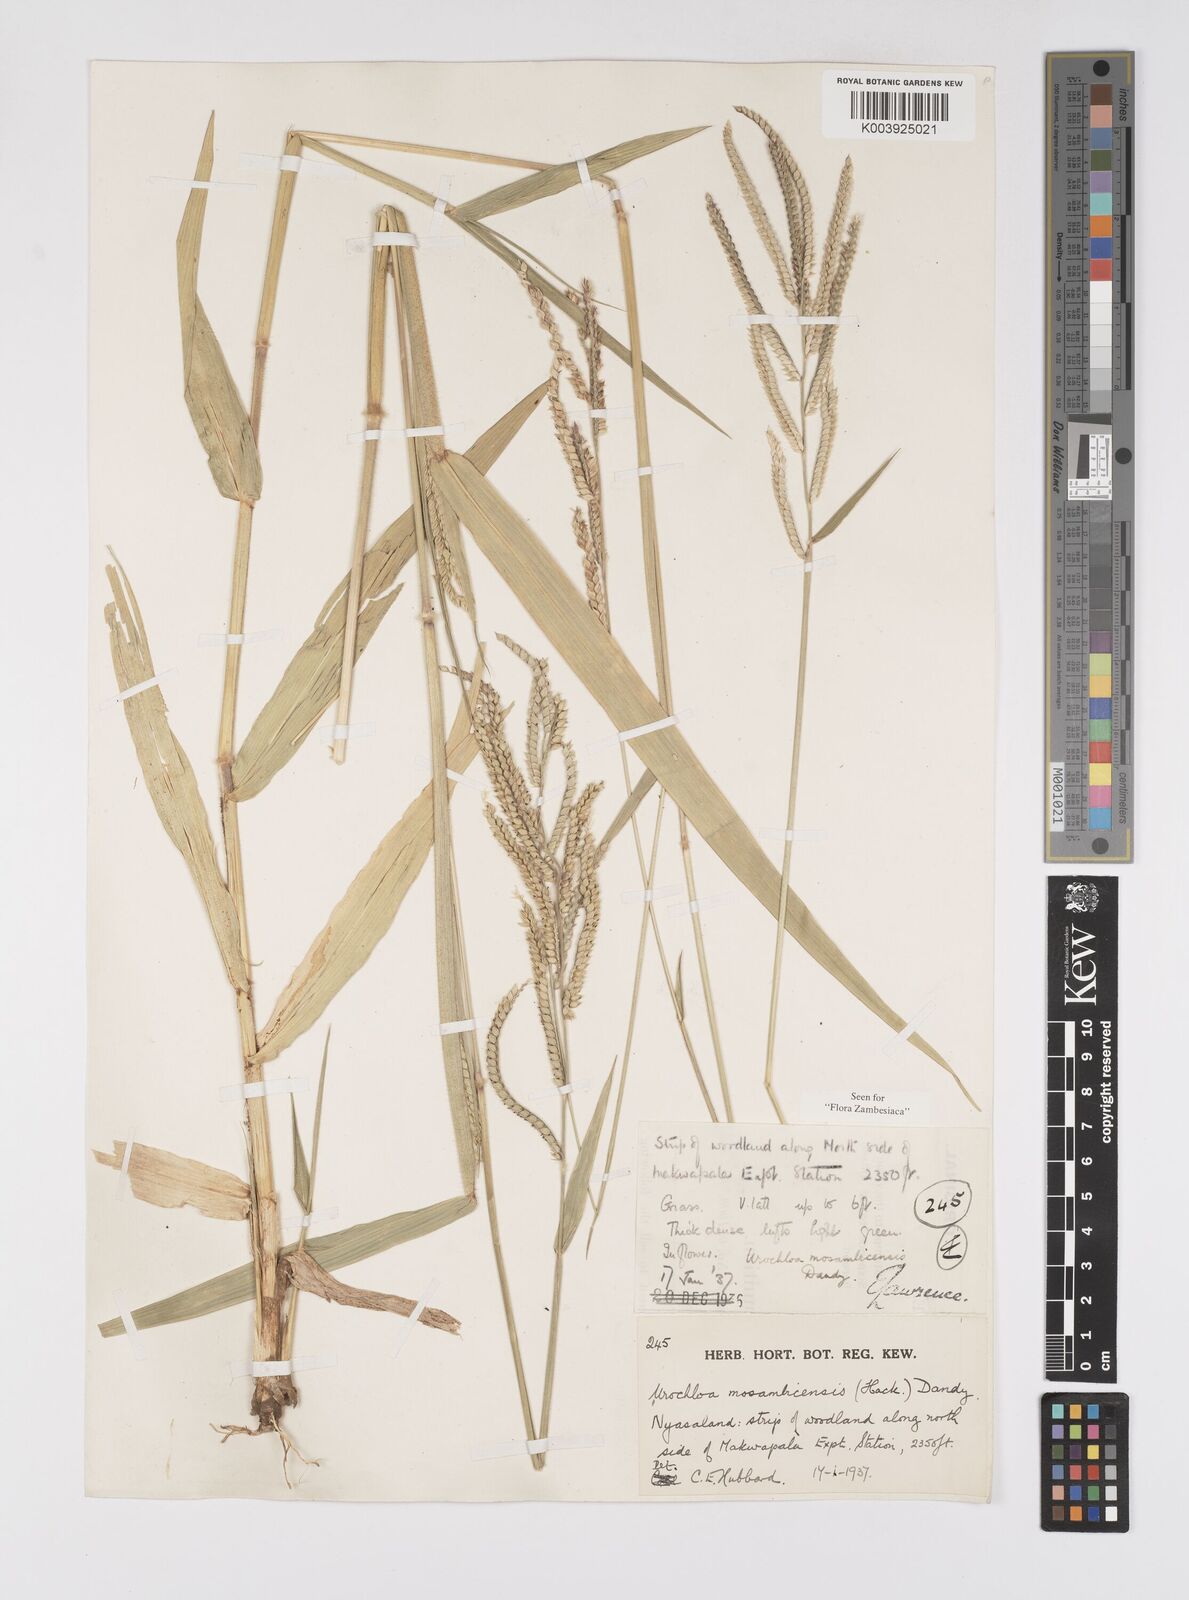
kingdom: Plantae
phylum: Tracheophyta
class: Liliopsida
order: Poales
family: Poaceae
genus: Urochloa
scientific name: Urochloa trichopus
